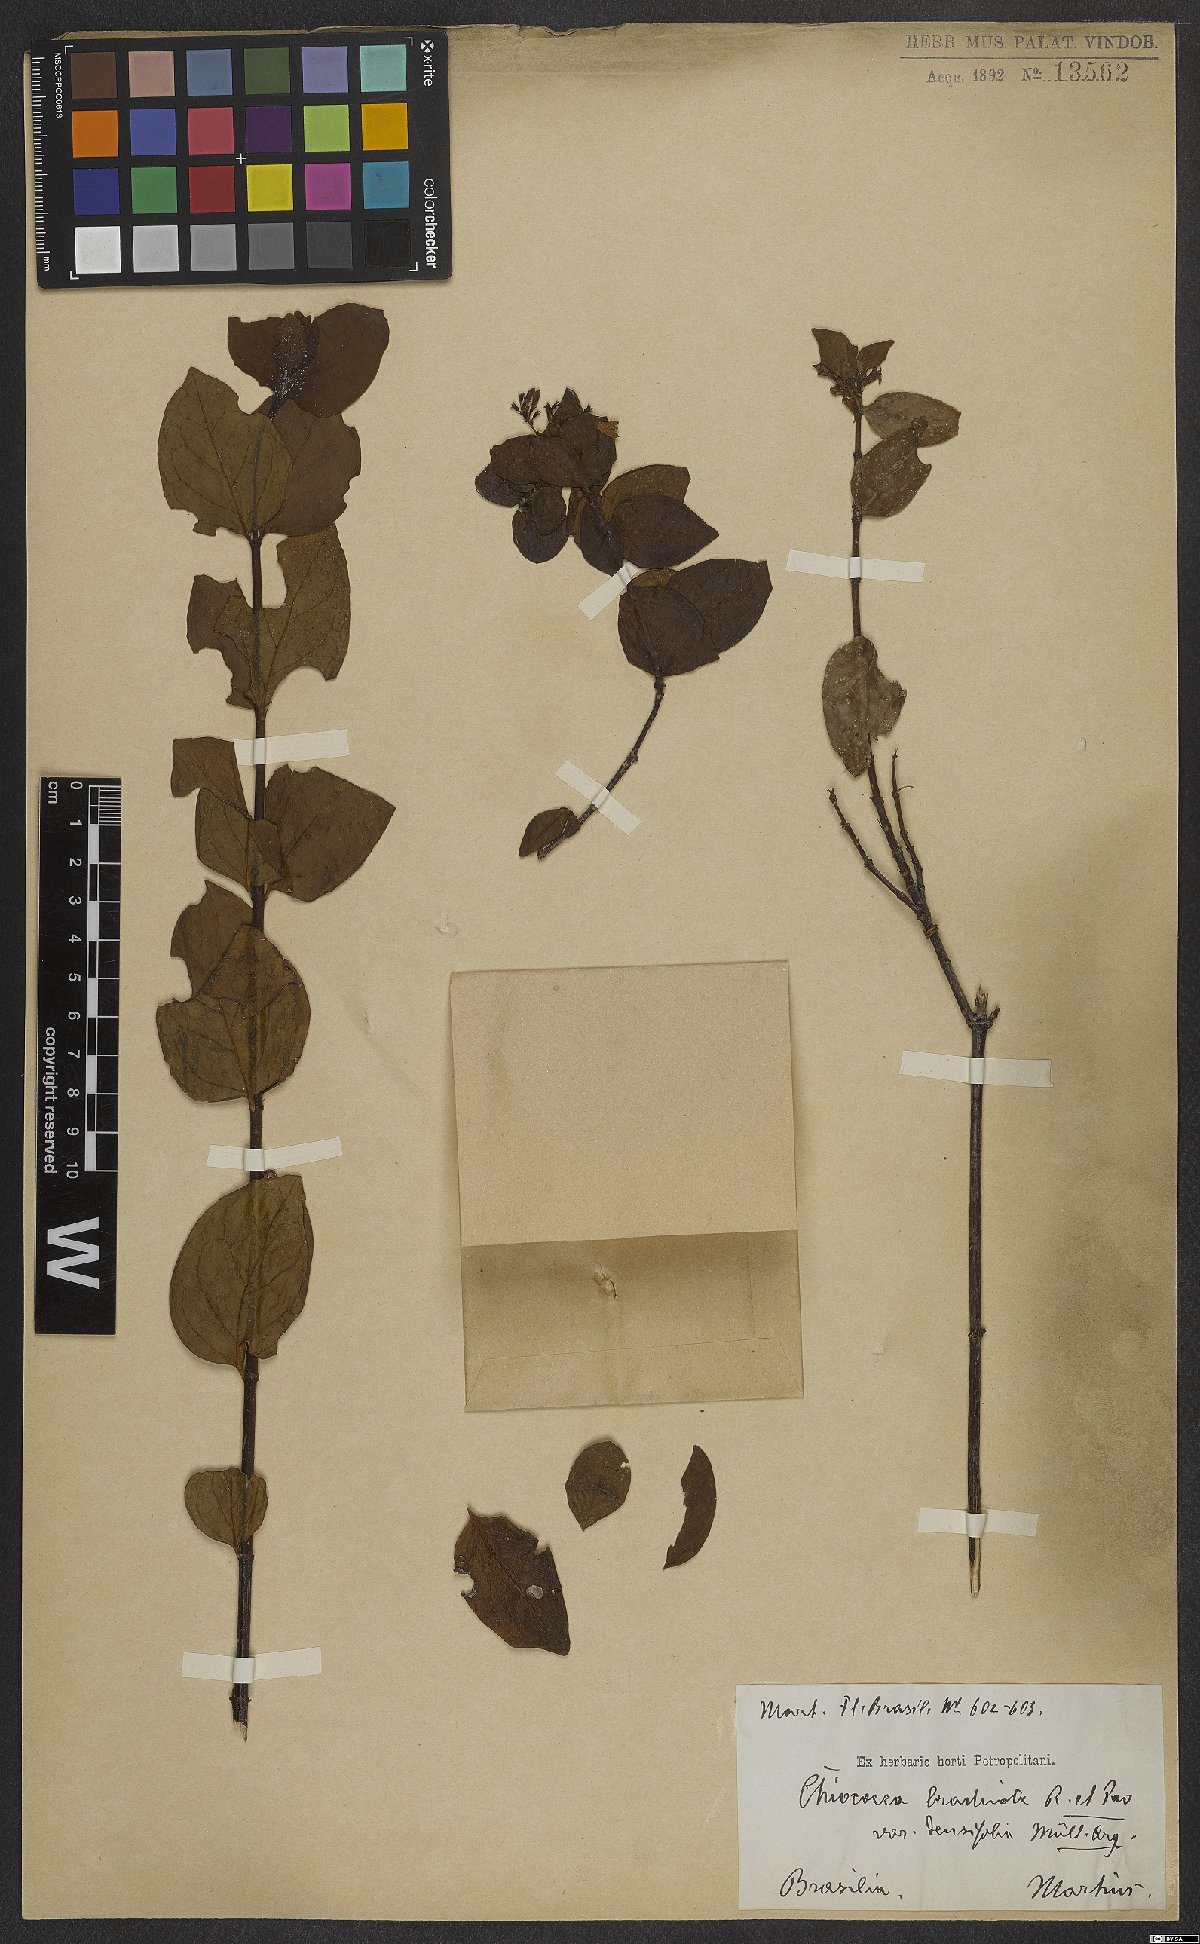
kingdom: Plantae
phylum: Tracheophyta
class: Magnoliopsida
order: Gentianales
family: Rubiaceae
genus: Chiococca
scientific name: Chiococca alba
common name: Snowberry
